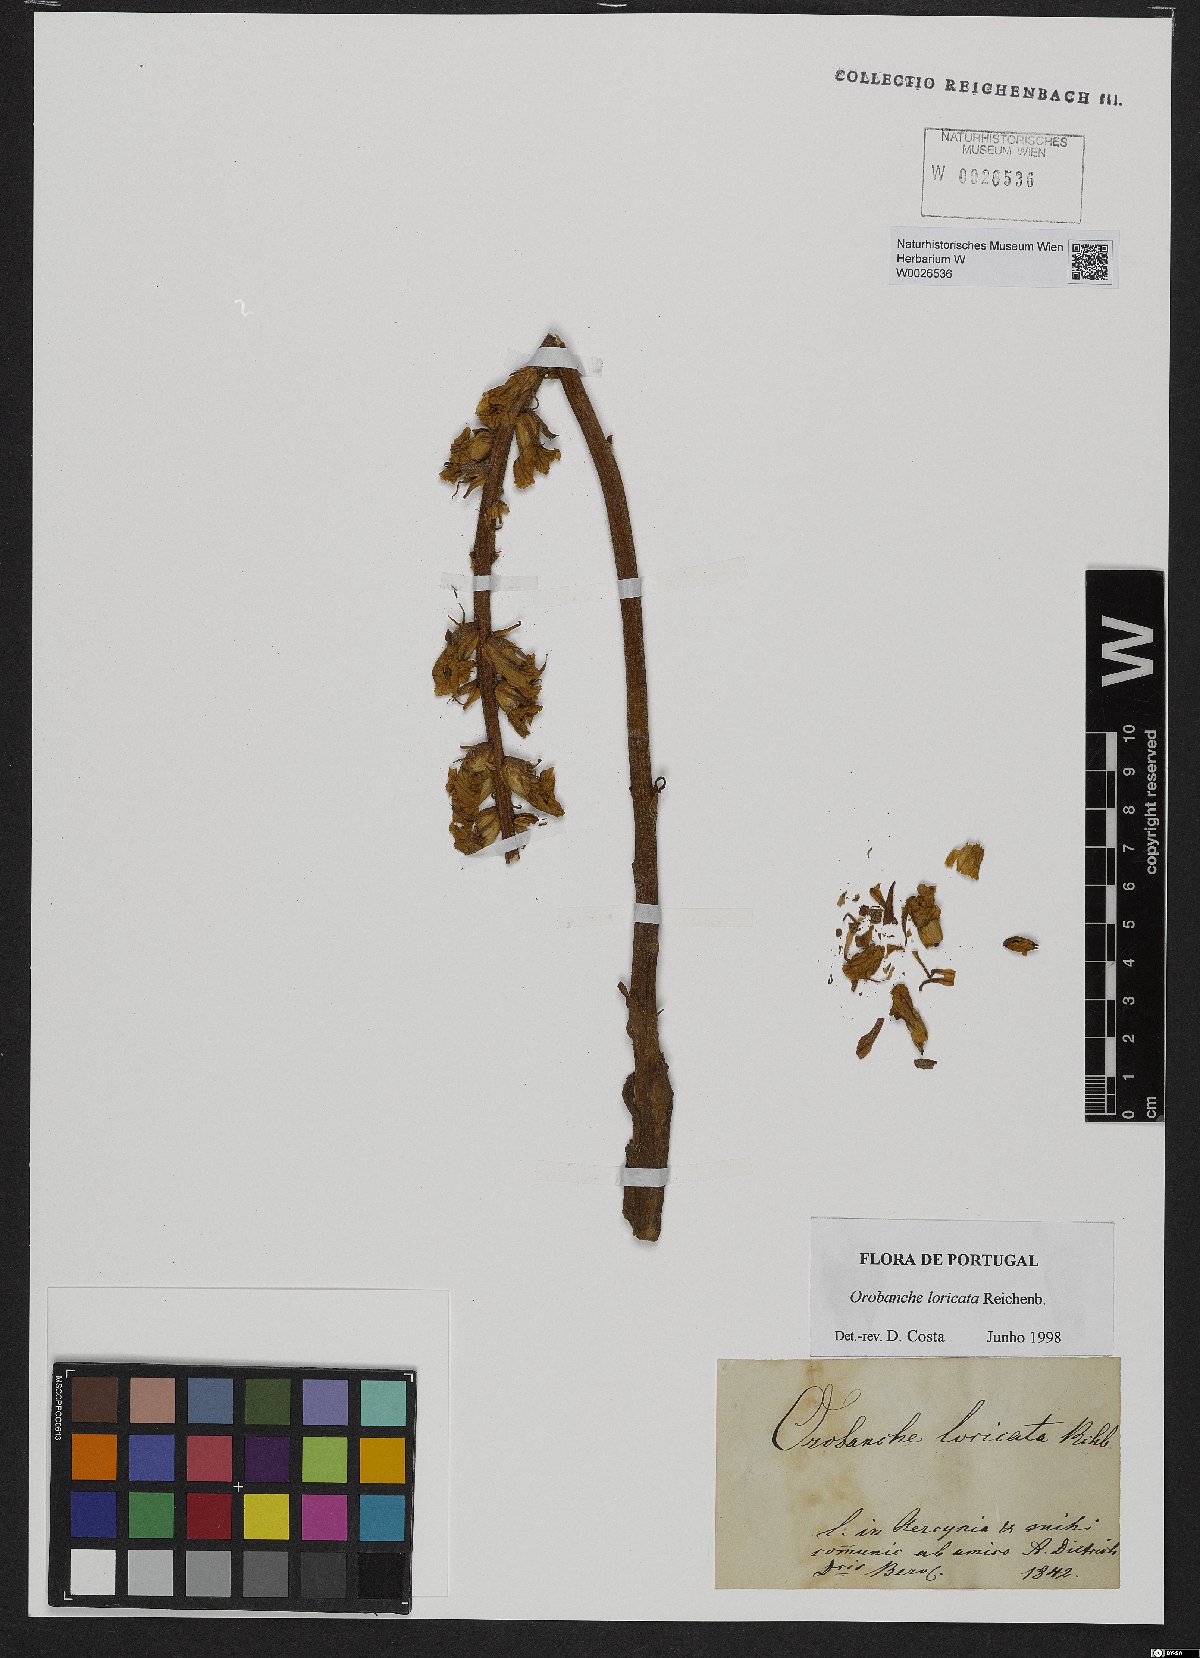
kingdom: Plantae
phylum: Tracheophyta
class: Magnoliopsida
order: Lamiales
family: Orobanchaceae
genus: Orobanche
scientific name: Orobanche artemisiae-campestris
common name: Oxtongue broomrape
